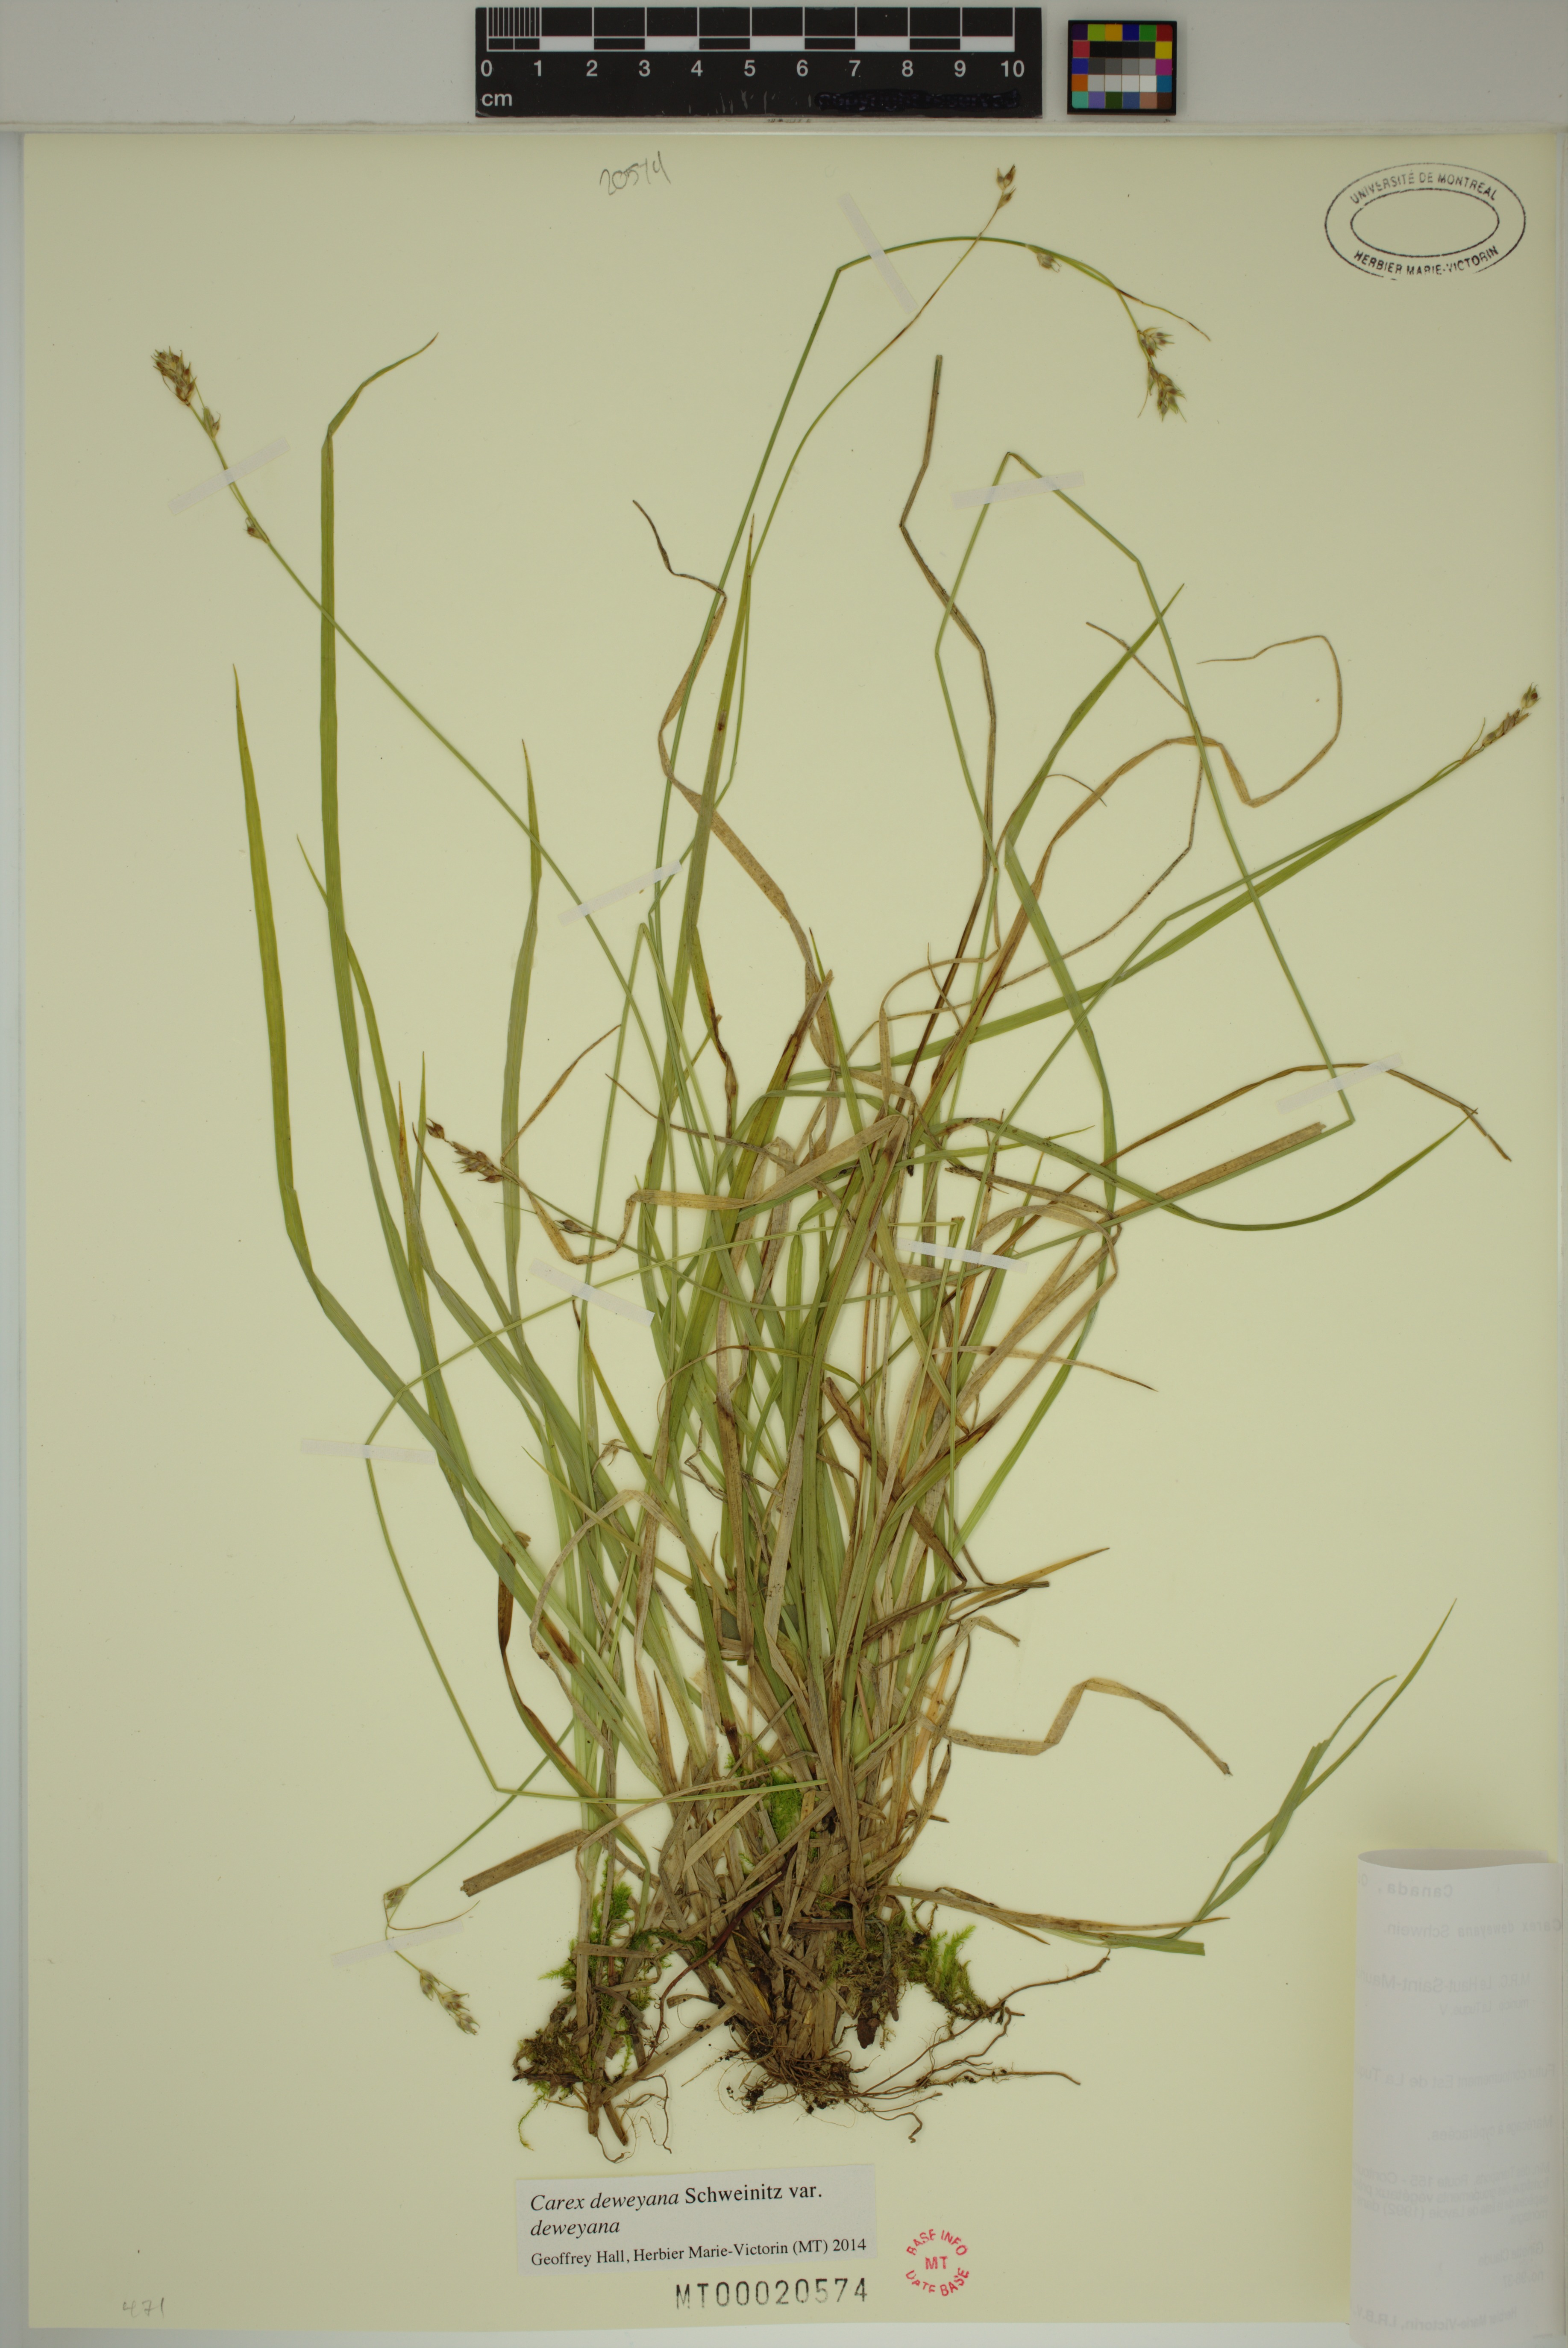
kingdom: Plantae
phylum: Tracheophyta
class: Liliopsida
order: Poales
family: Cyperaceae
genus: Carex
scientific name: Carex deweyana
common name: Dewey's sedge
